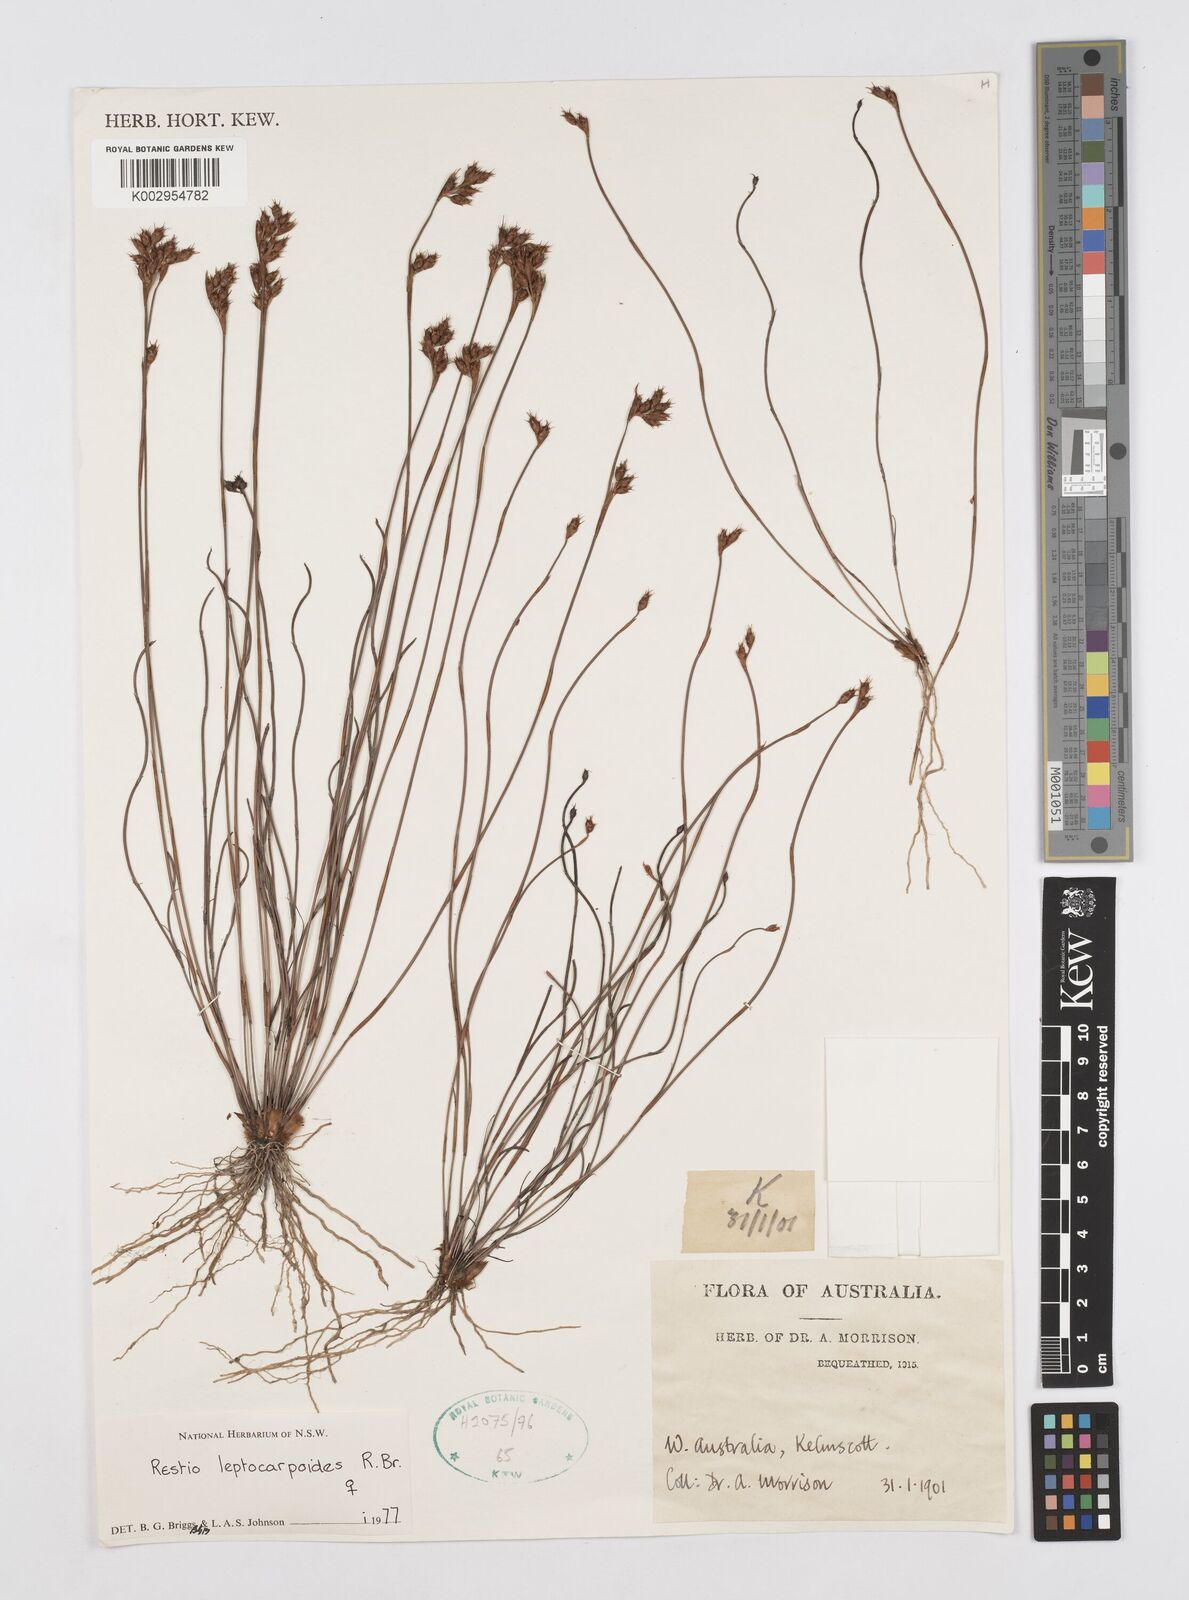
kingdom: Plantae
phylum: Tracheophyta
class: Liliopsida
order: Poales
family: Restionaceae
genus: Cytogonidium
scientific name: Cytogonidium leptocarpoides
